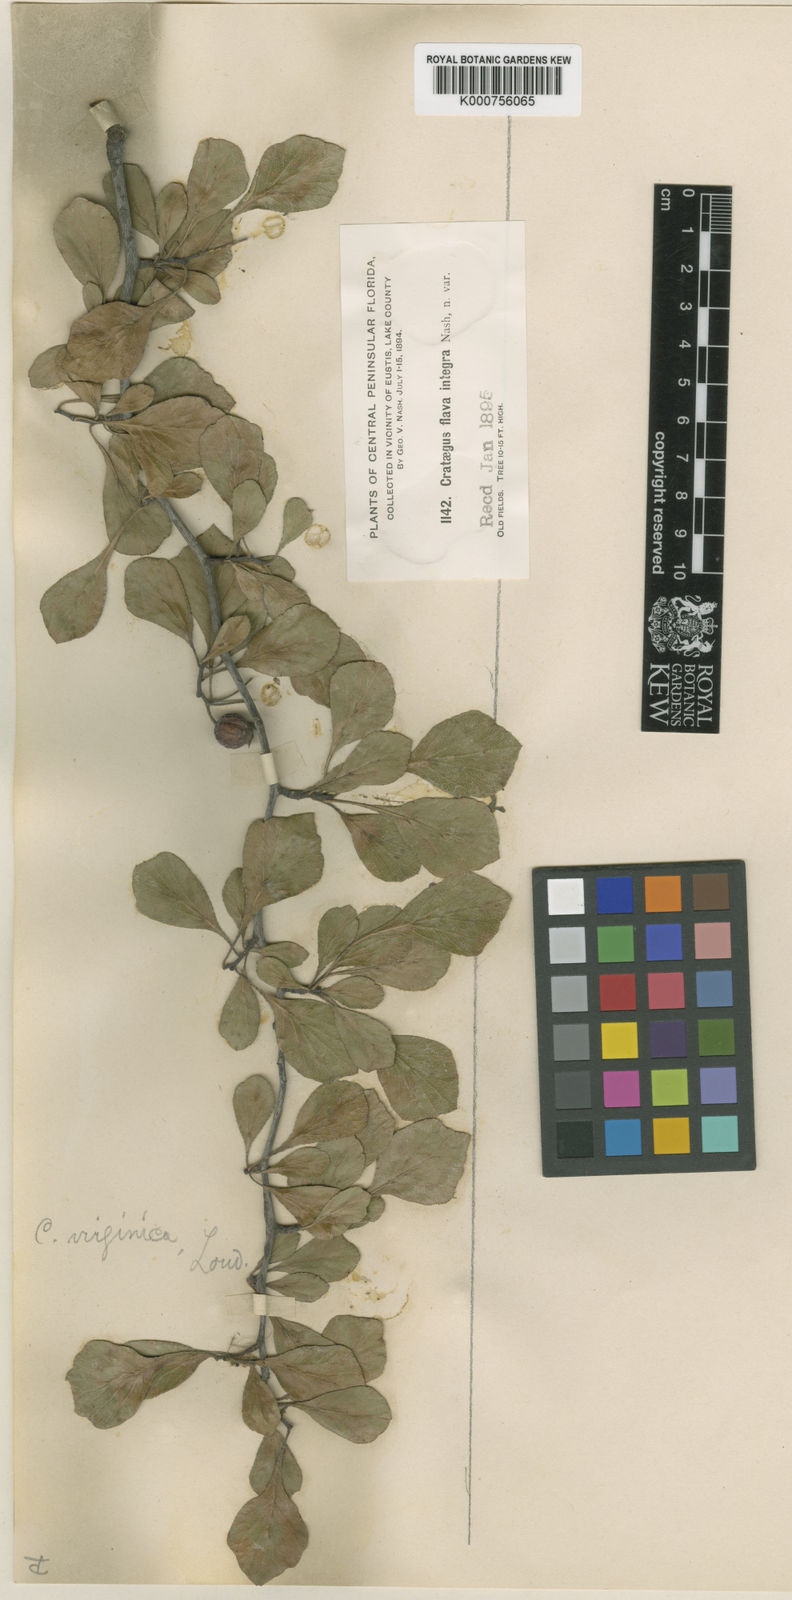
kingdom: Plantae
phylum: Tracheophyta
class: Magnoliopsida
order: Rosales
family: Rosaceae
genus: Crataegus
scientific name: Crataegus flava
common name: Yellow hawthorn
